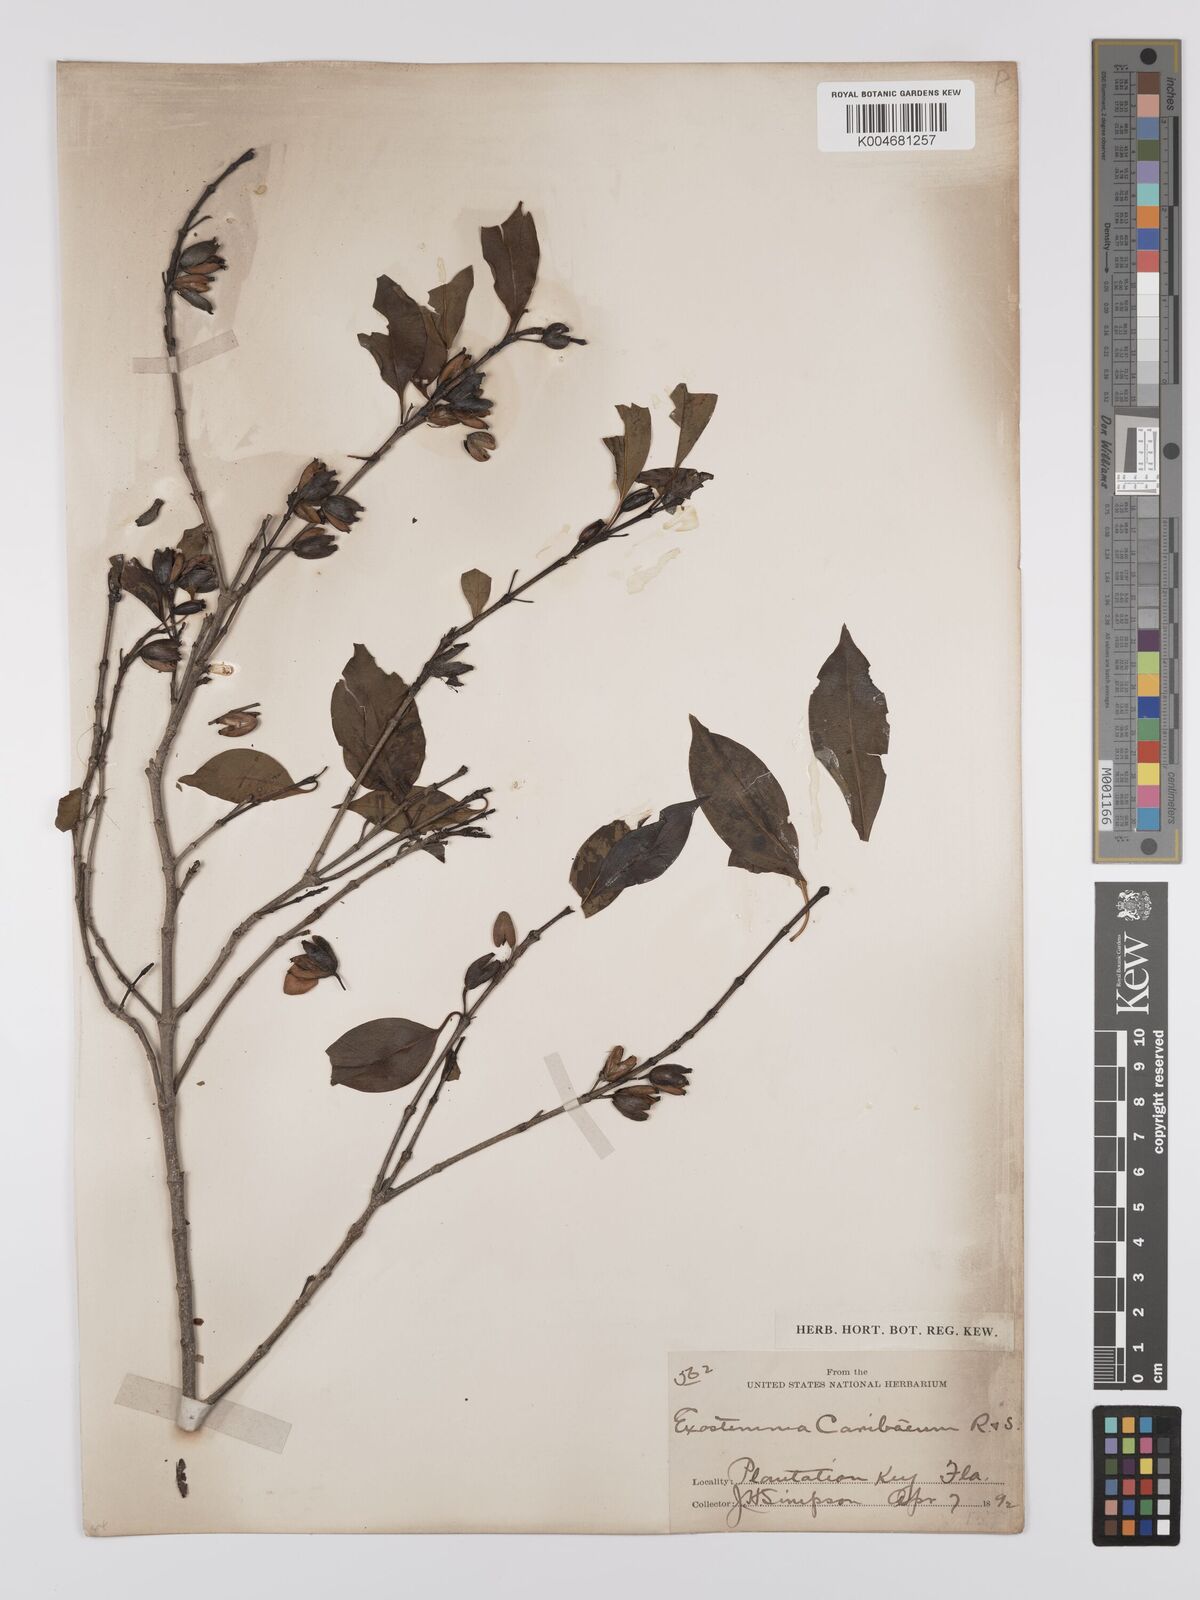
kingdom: Plantae
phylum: Tracheophyta
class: Magnoliopsida
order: Gentianales
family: Rubiaceae
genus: Exostema
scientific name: Exostema caribaeum
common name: Princewood
